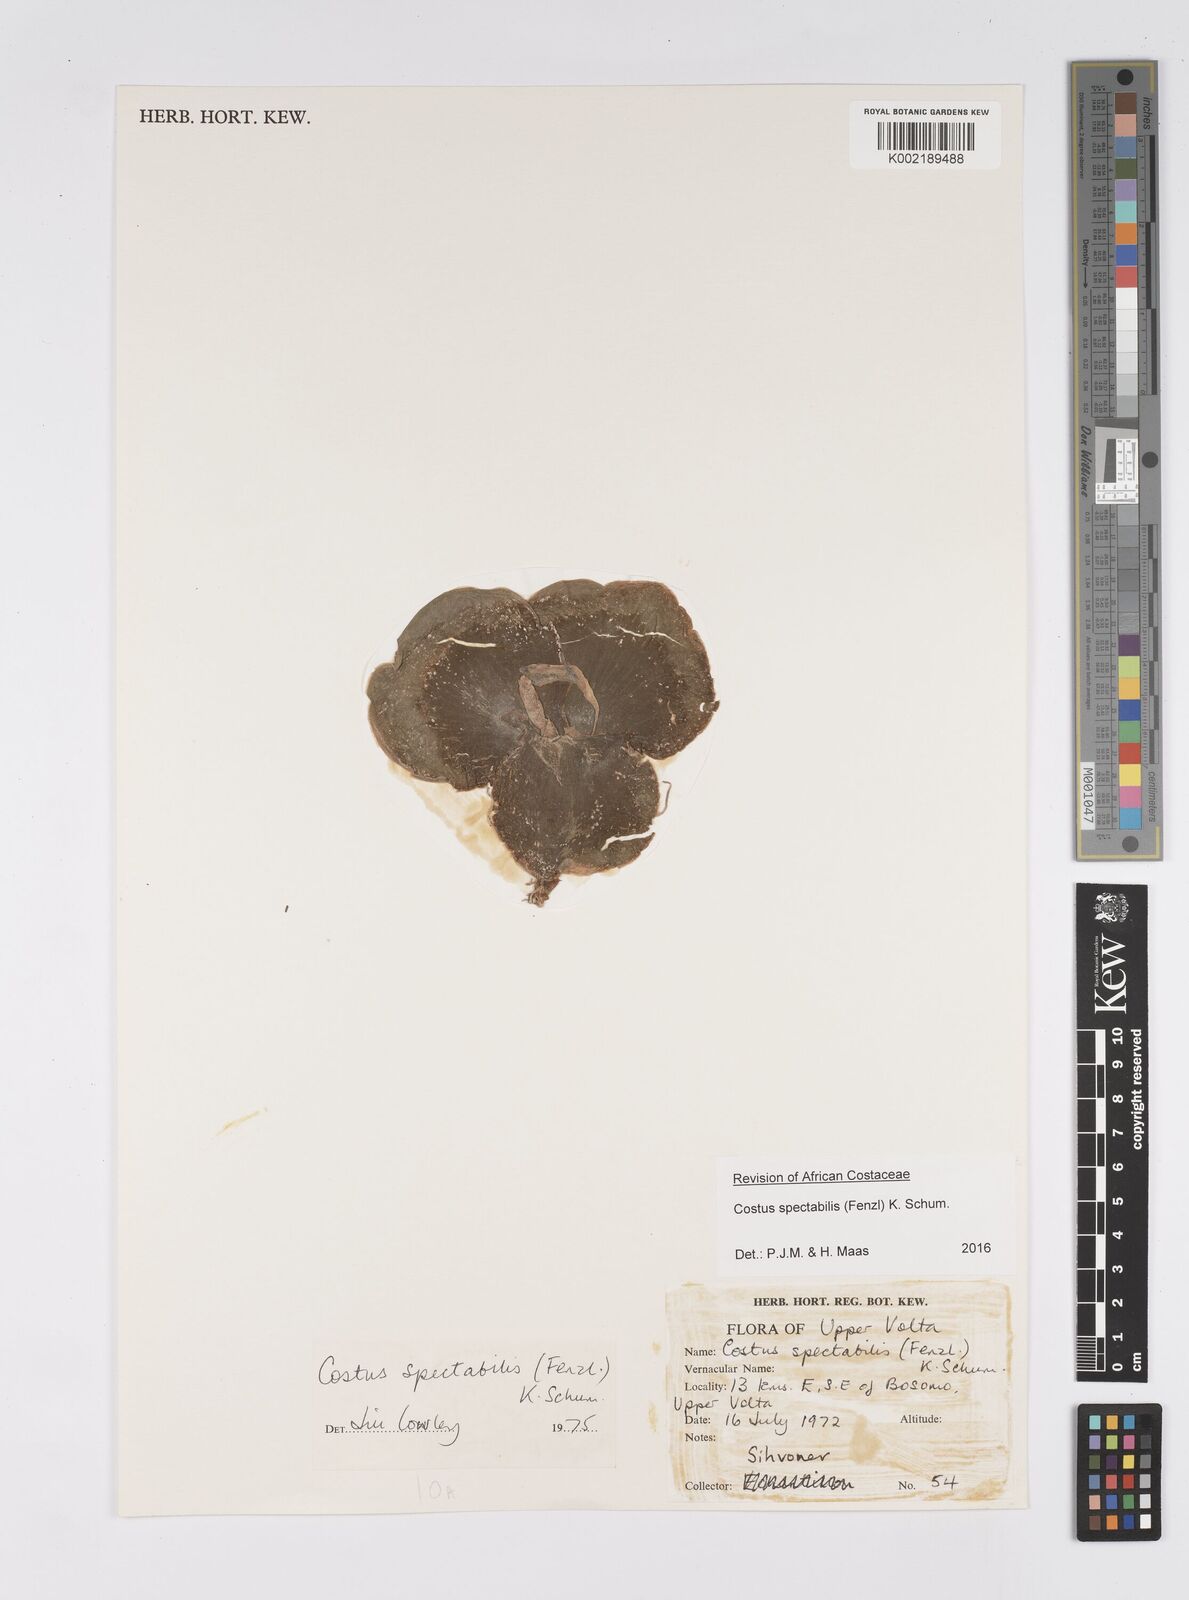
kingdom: Plantae
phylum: Tracheophyta
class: Liliopsida
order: Zingiberales
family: Costaceae
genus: Costus
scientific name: Costus spectabilis
